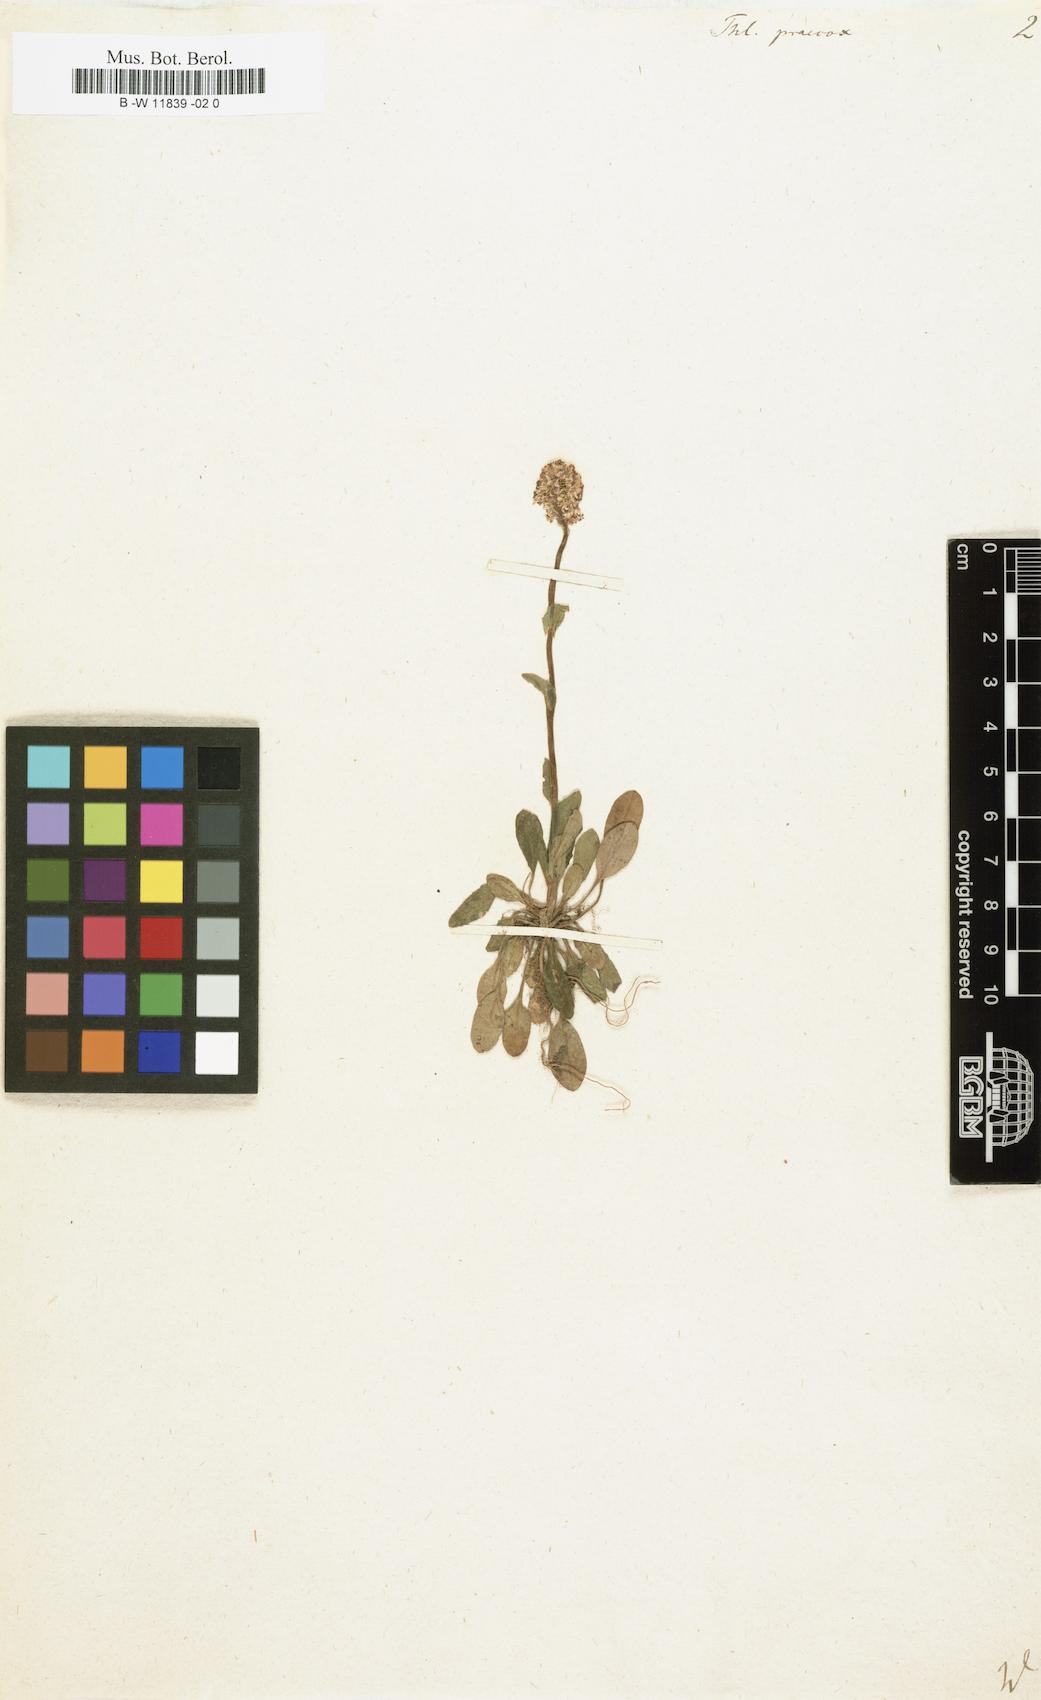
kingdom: Plantae
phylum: Tracheophyta
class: Magnoliopsida
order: Brassicales
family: Brassicaceae
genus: Thlaspi
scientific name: Thlaspi praecox
